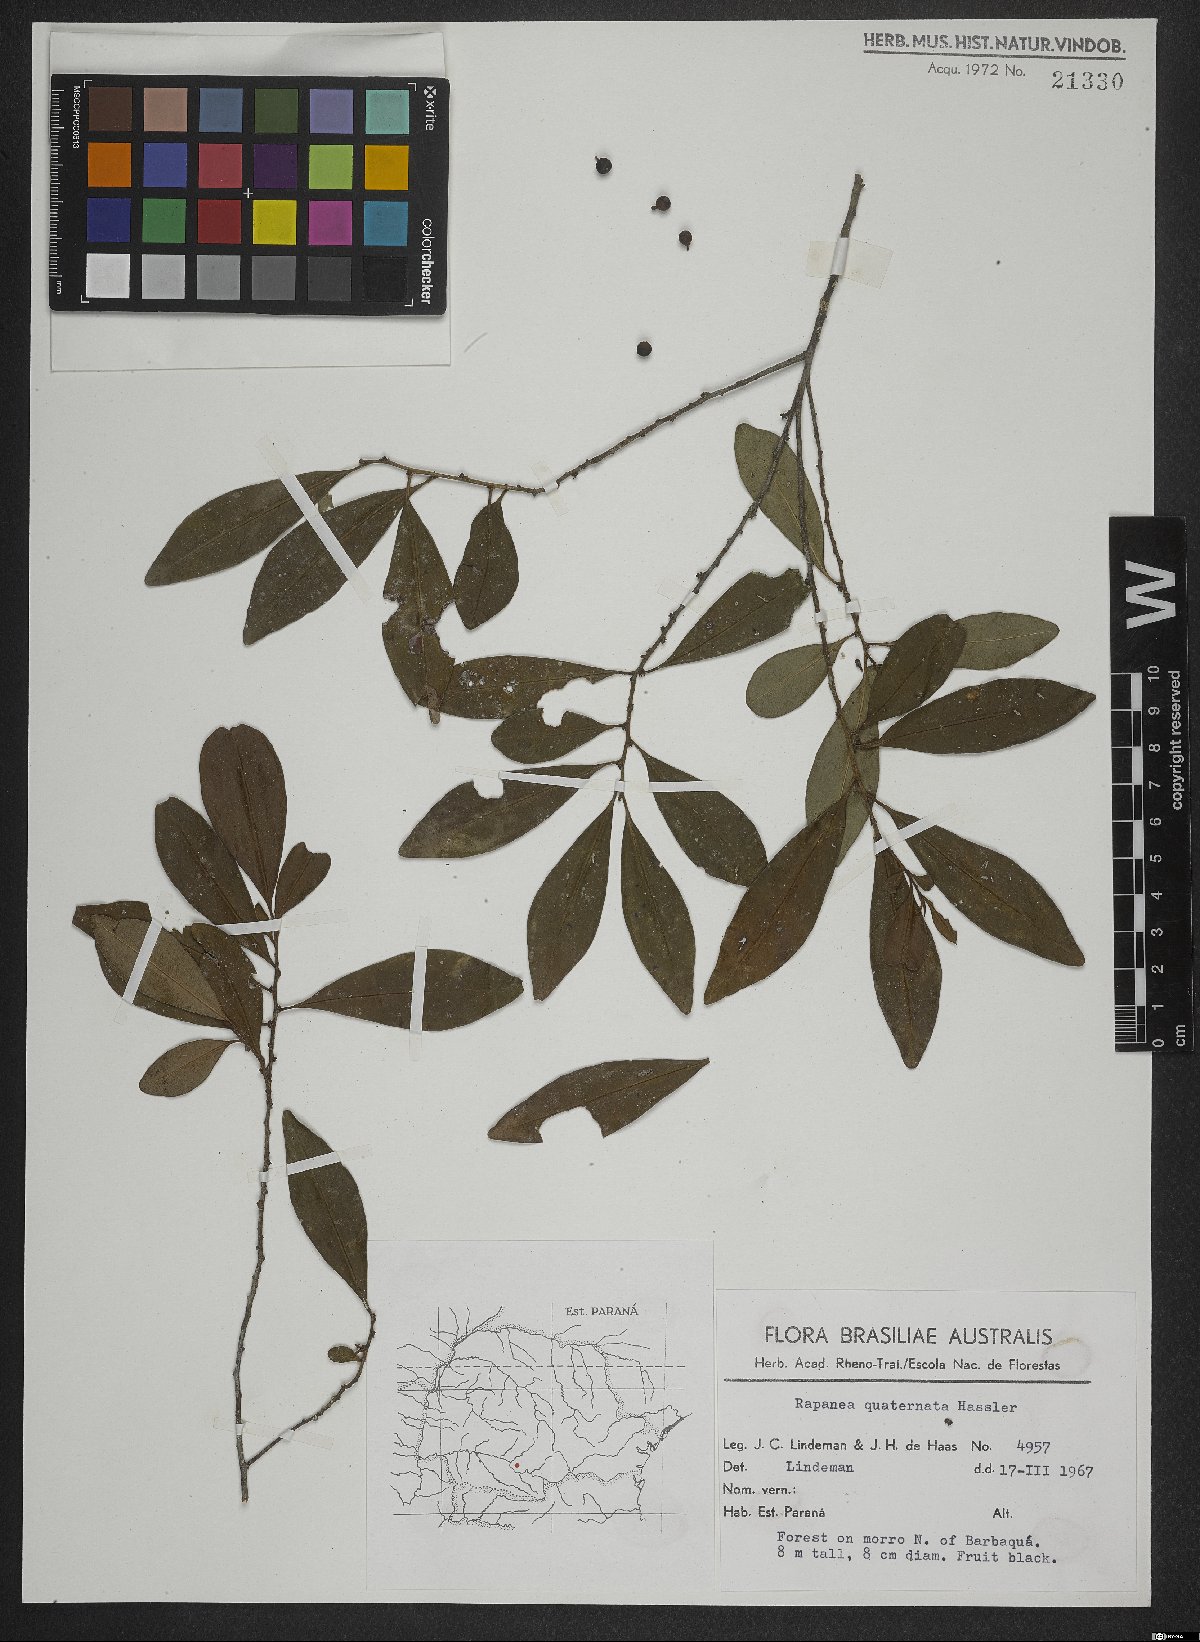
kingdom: Plantae
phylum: Tracheophyta
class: Magnoliopsida
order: Ericales
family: Primulaceae
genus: Myrsine
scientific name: Myrsine loefgrenii
